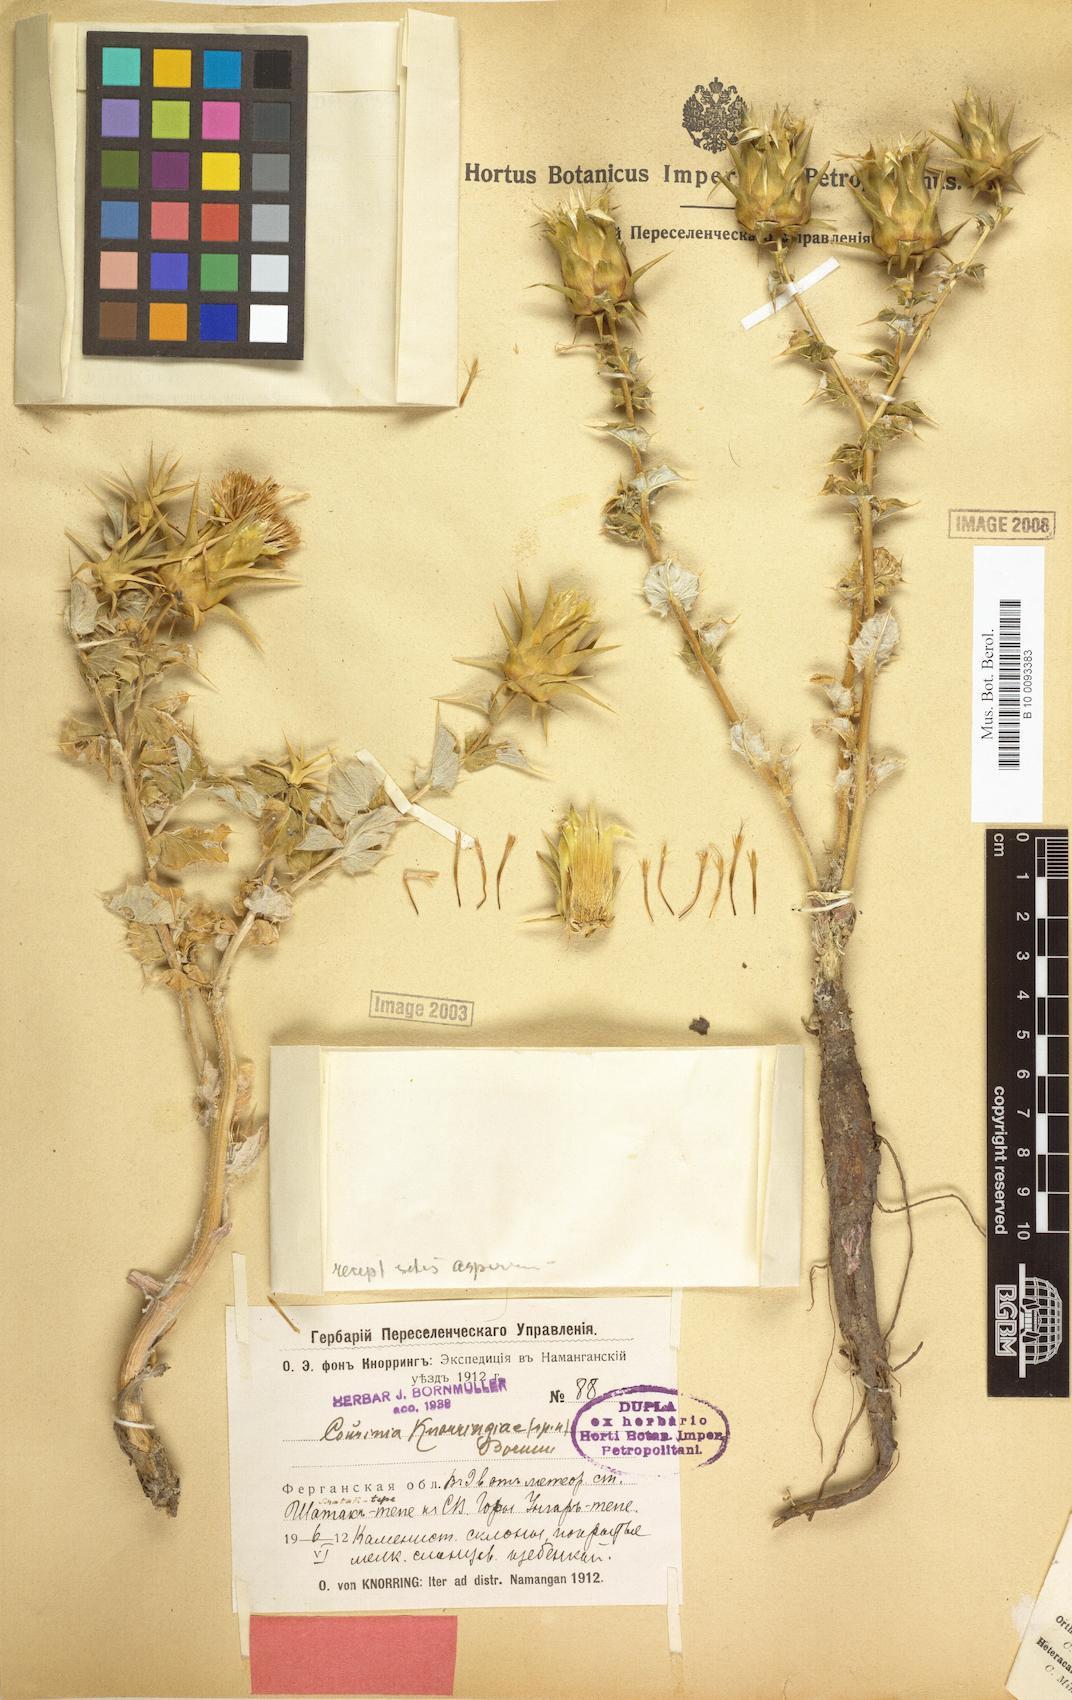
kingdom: Plantae
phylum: Tracheophyta
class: Magnoliopsida
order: Asterales
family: Asteraceae
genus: Cousinia
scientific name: Cousinia knorringiae
